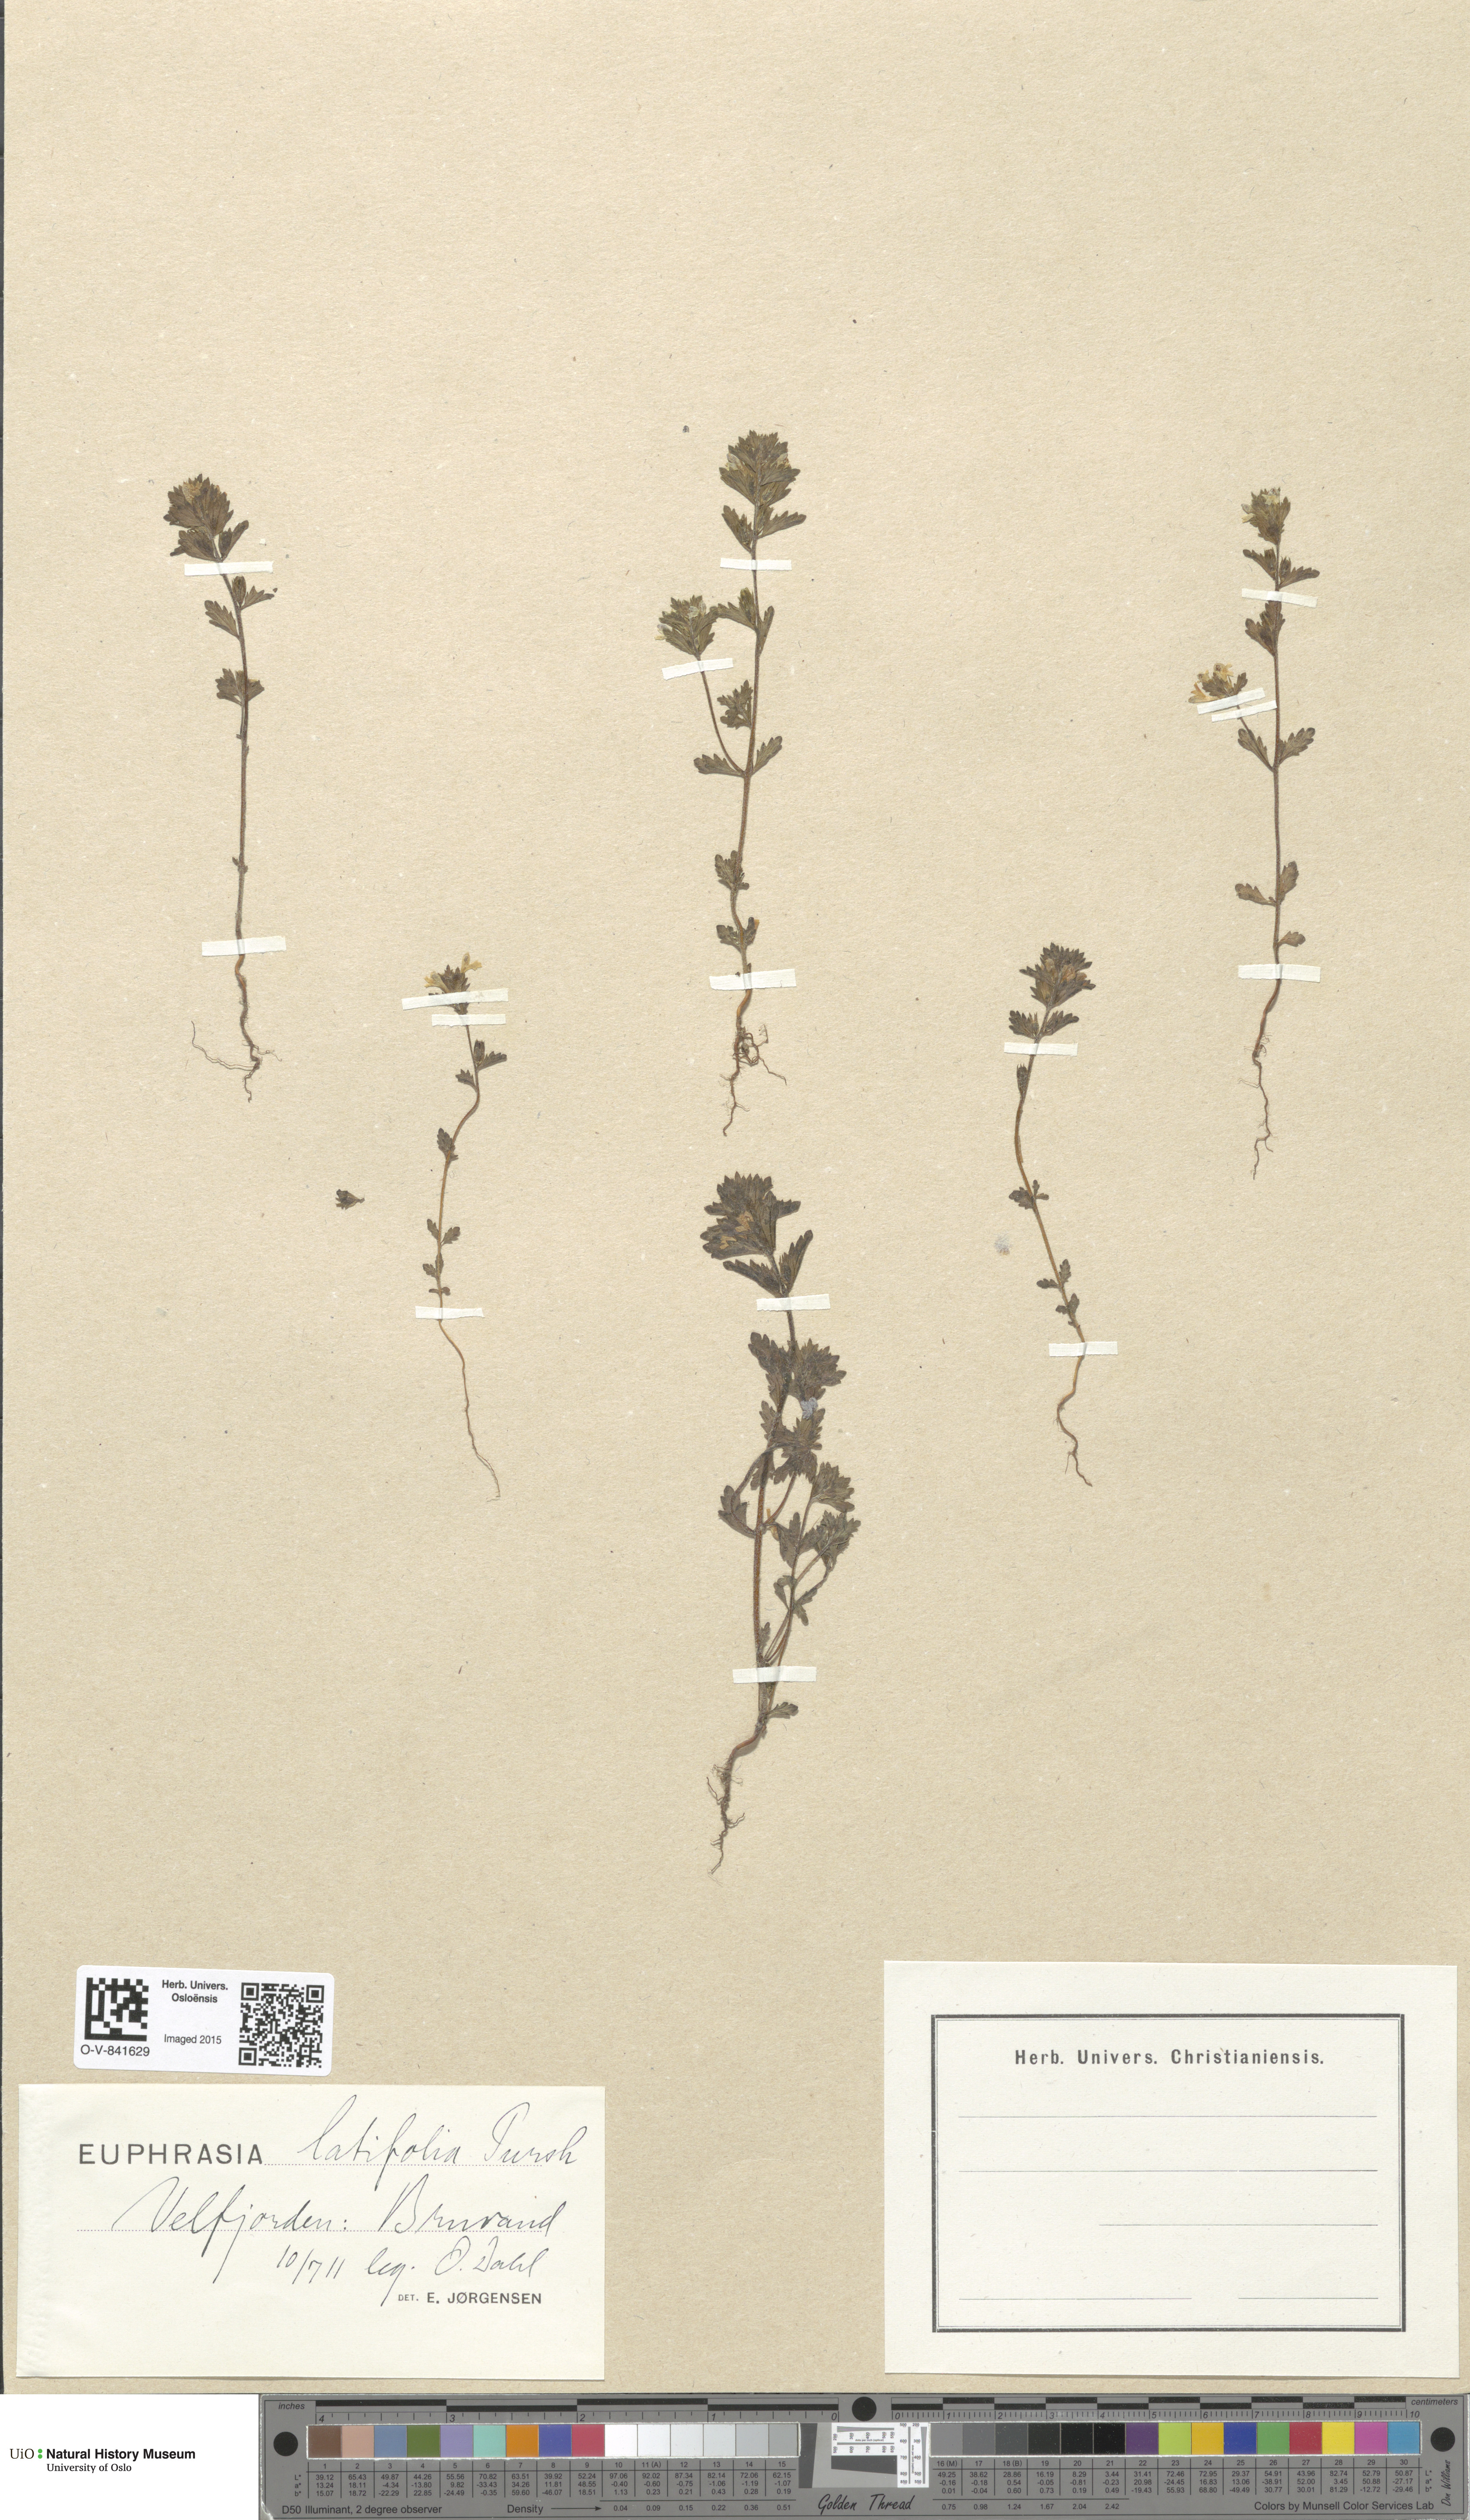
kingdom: Plantae
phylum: Tracheophyta
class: Magnoliopsida
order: Lamiales
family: Orobanchaceae
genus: Euphrasia
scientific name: Euphrasia wettsteinii
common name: Wettstein's eyebright
